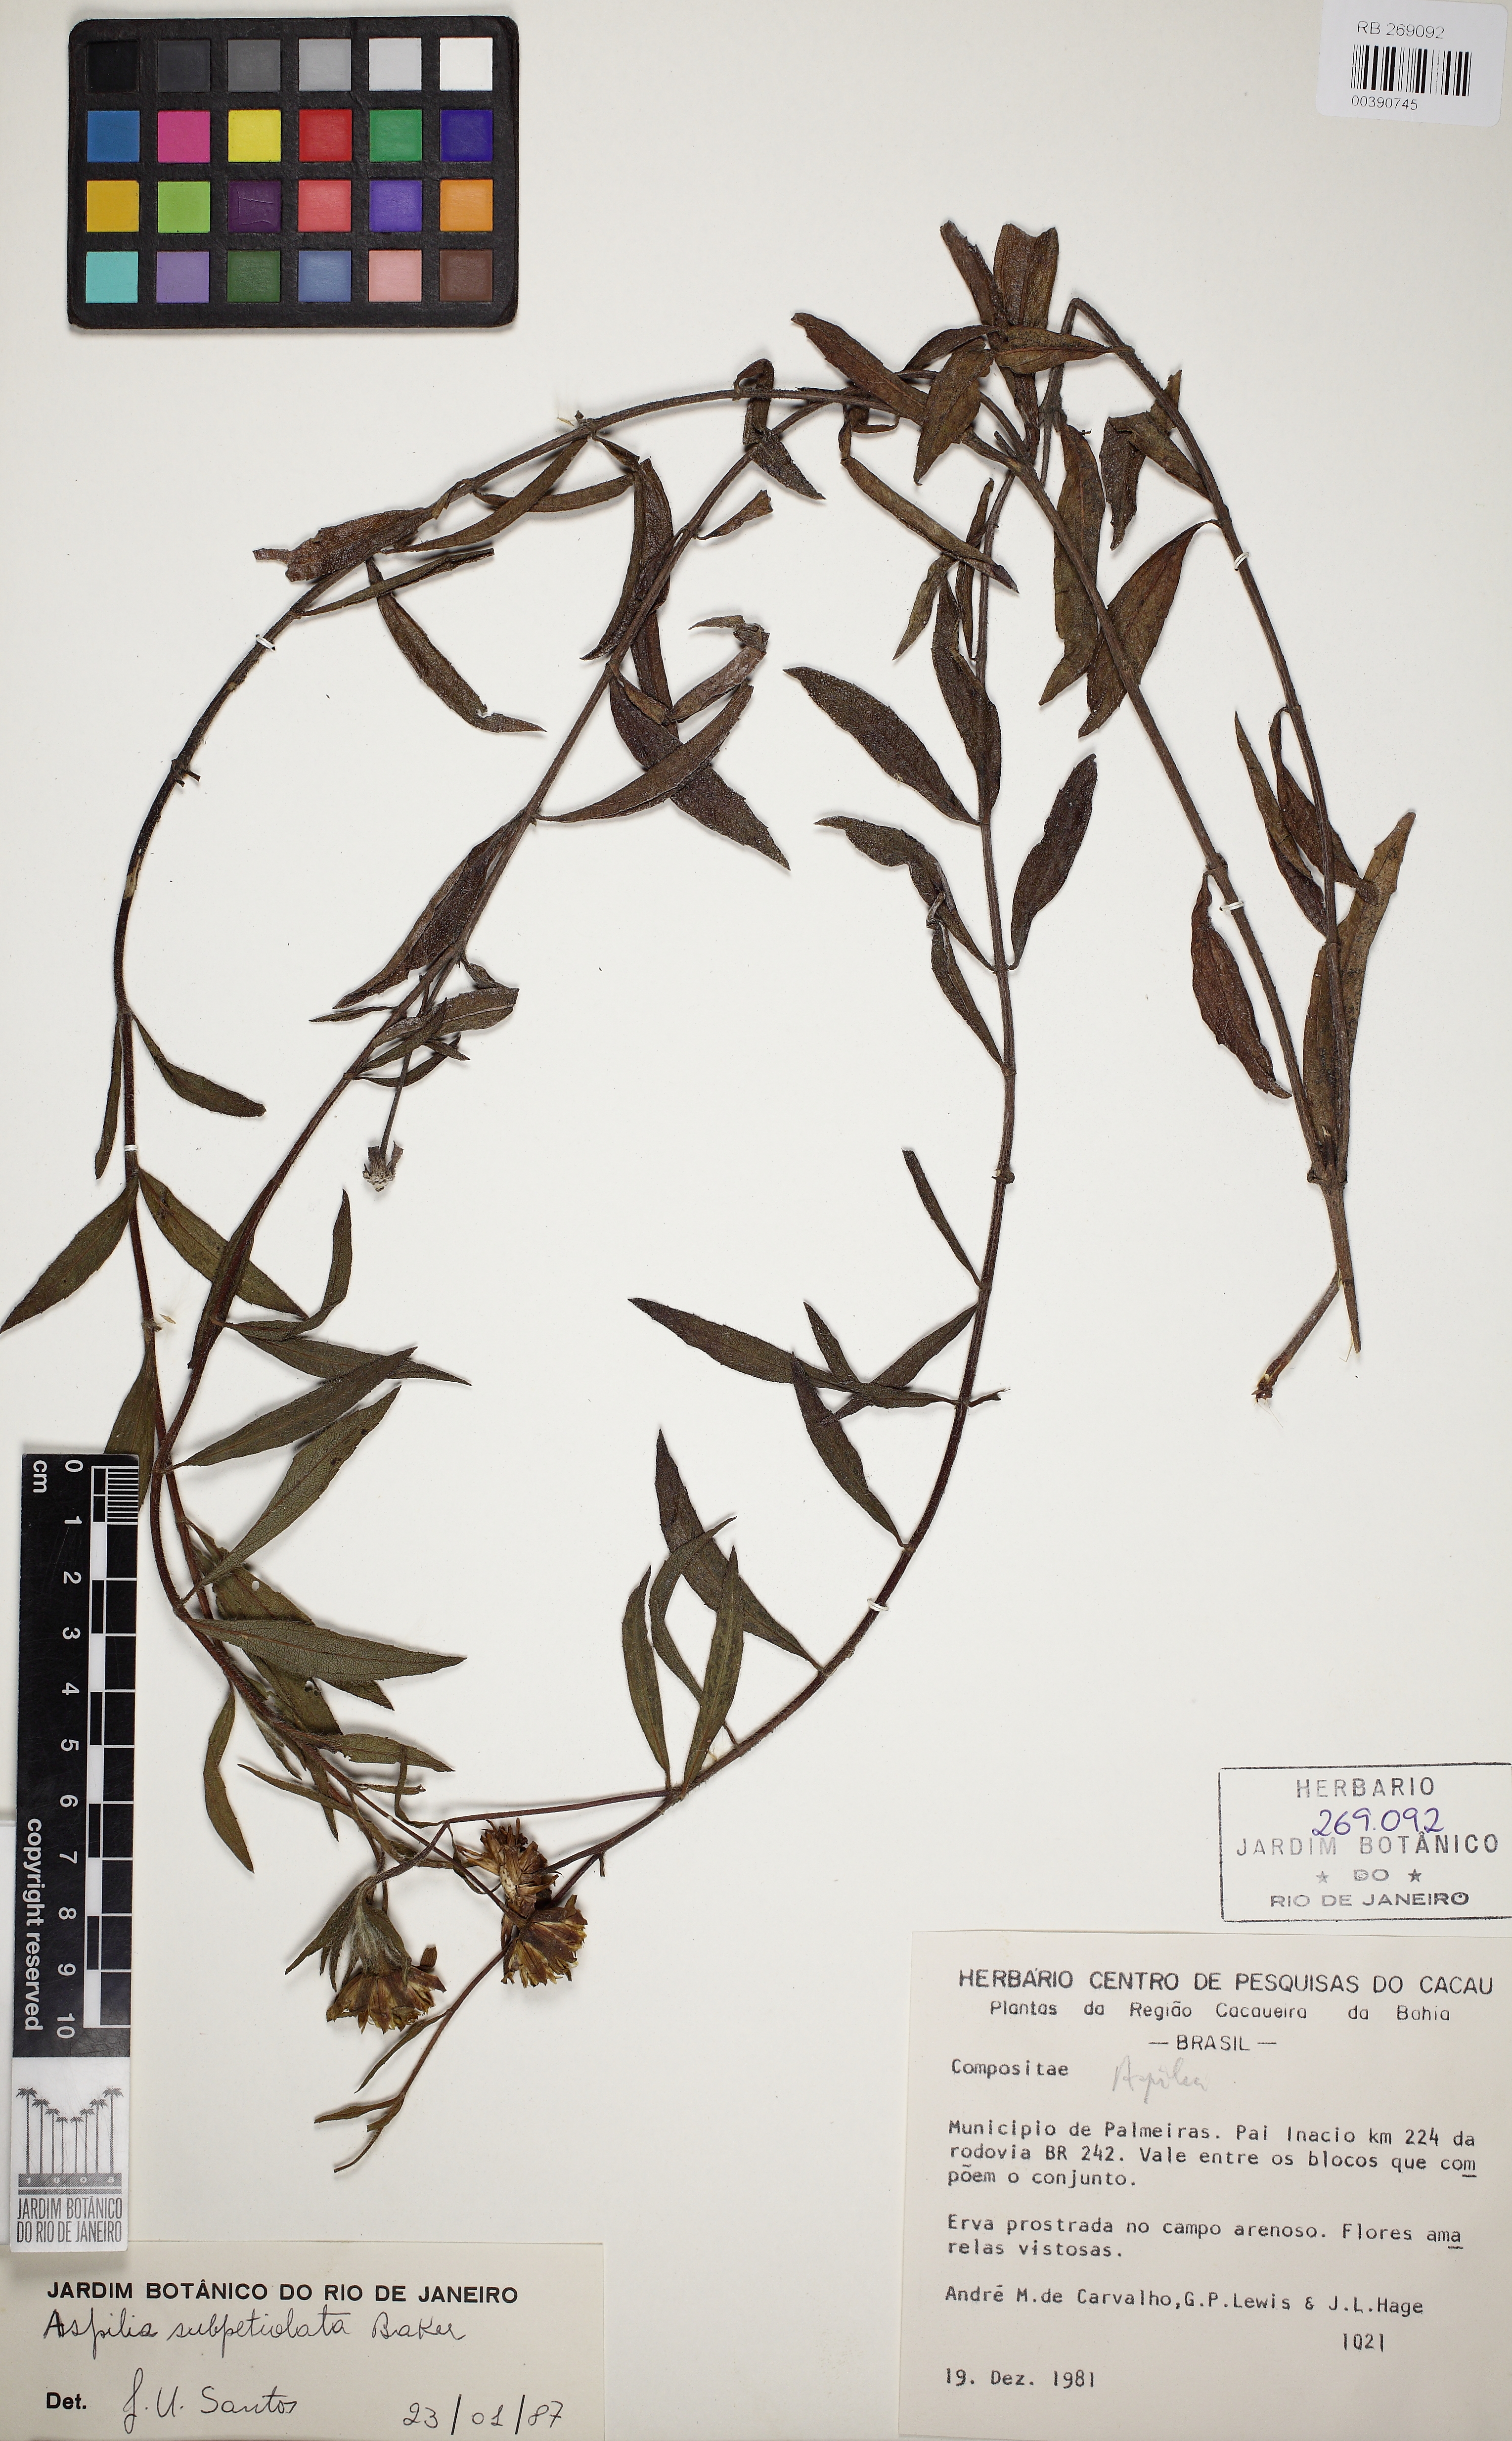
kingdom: Plantae
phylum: Tracheophyta
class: Magnoliopsida
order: Asterales
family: Asteraceae
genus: Wedelia
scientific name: Wedelia riedellii
